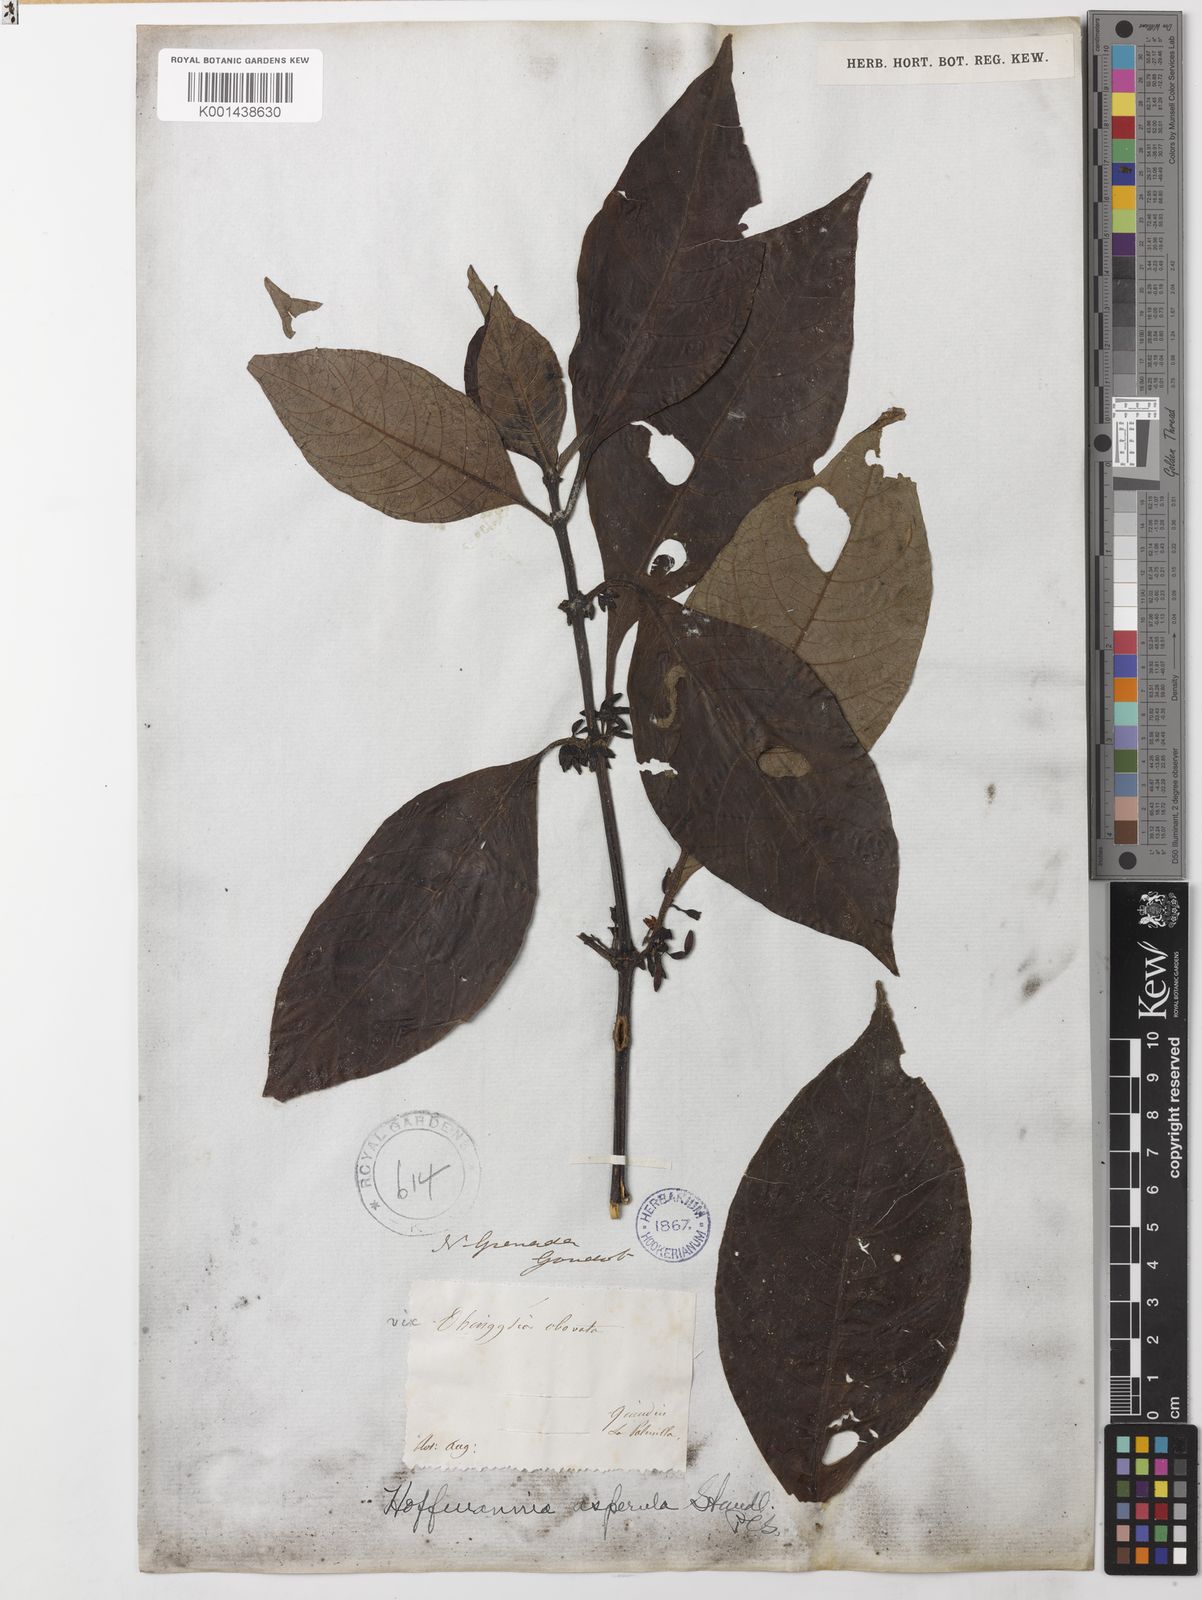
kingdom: Plantae
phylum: Tracheophyta
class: Magnoliopsida
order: Gentianales
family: Rubiaceae
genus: Hoffmannia
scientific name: Hoffmannia asperula
